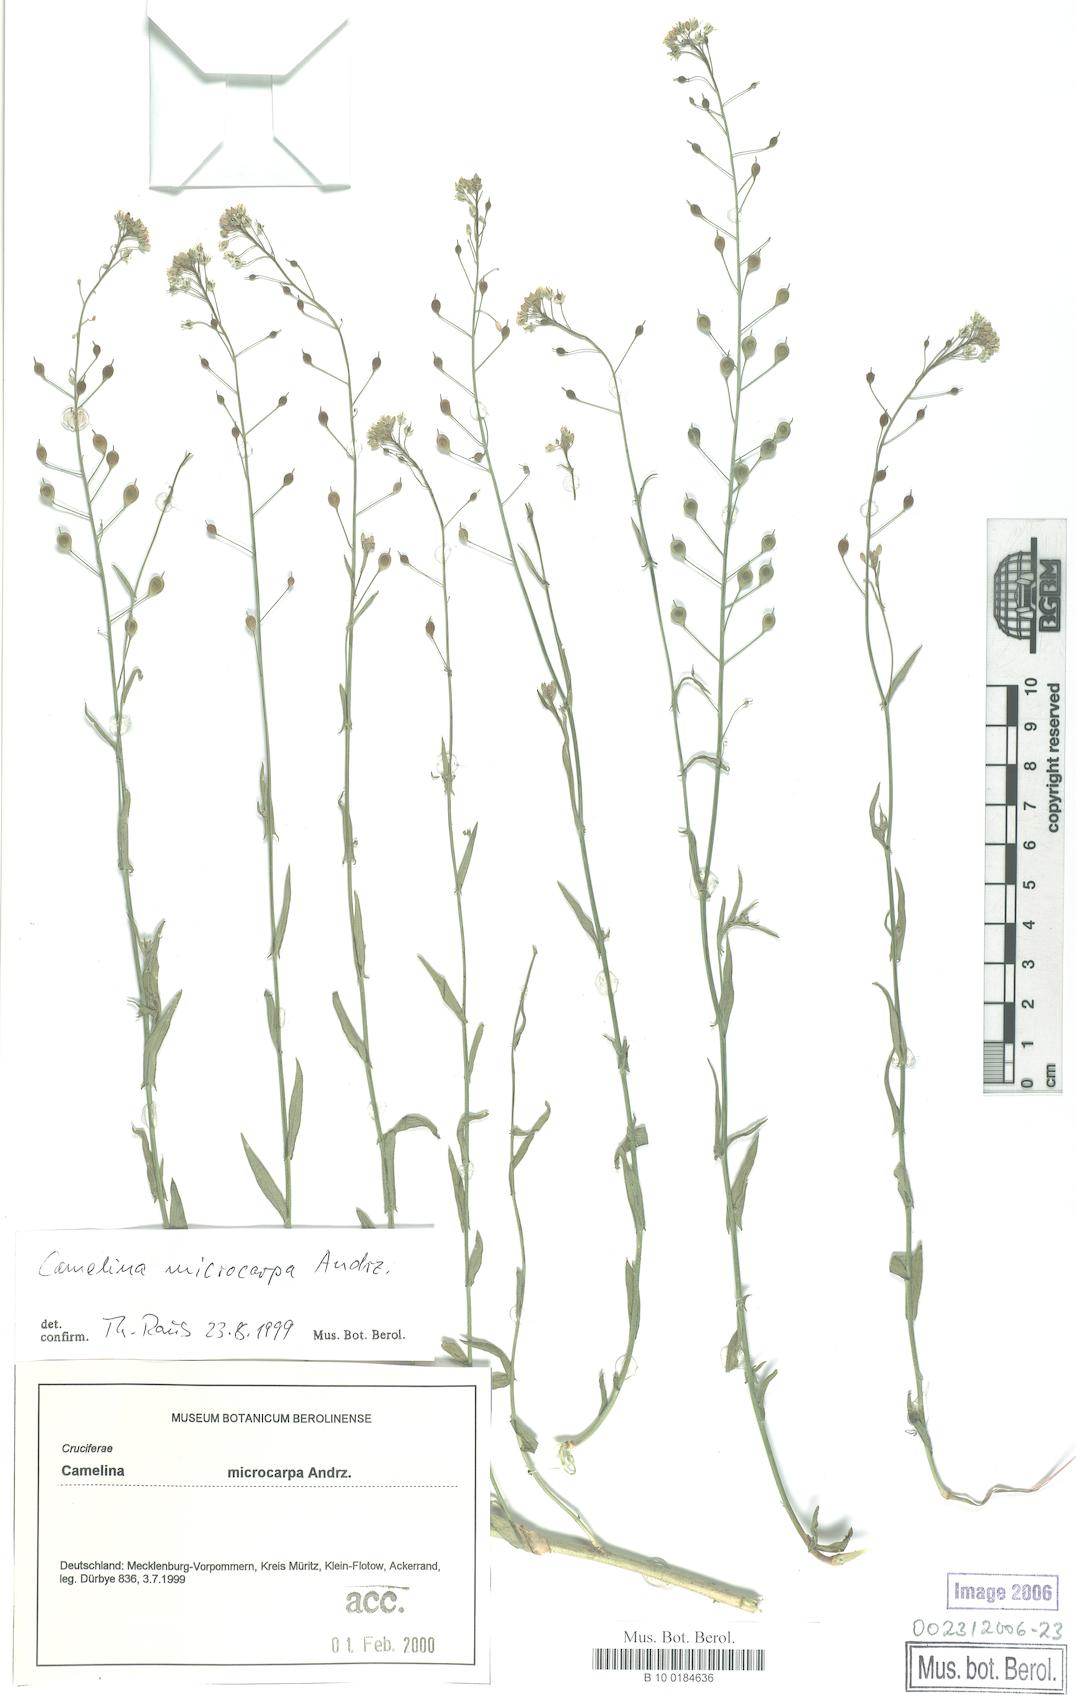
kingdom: Plantae
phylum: Tracheophyta
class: Magnoliopsida
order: Brassicales
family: Brassicaceae
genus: Camelina
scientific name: Camelina microcarpa
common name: Lesser gold-of-pleasure
